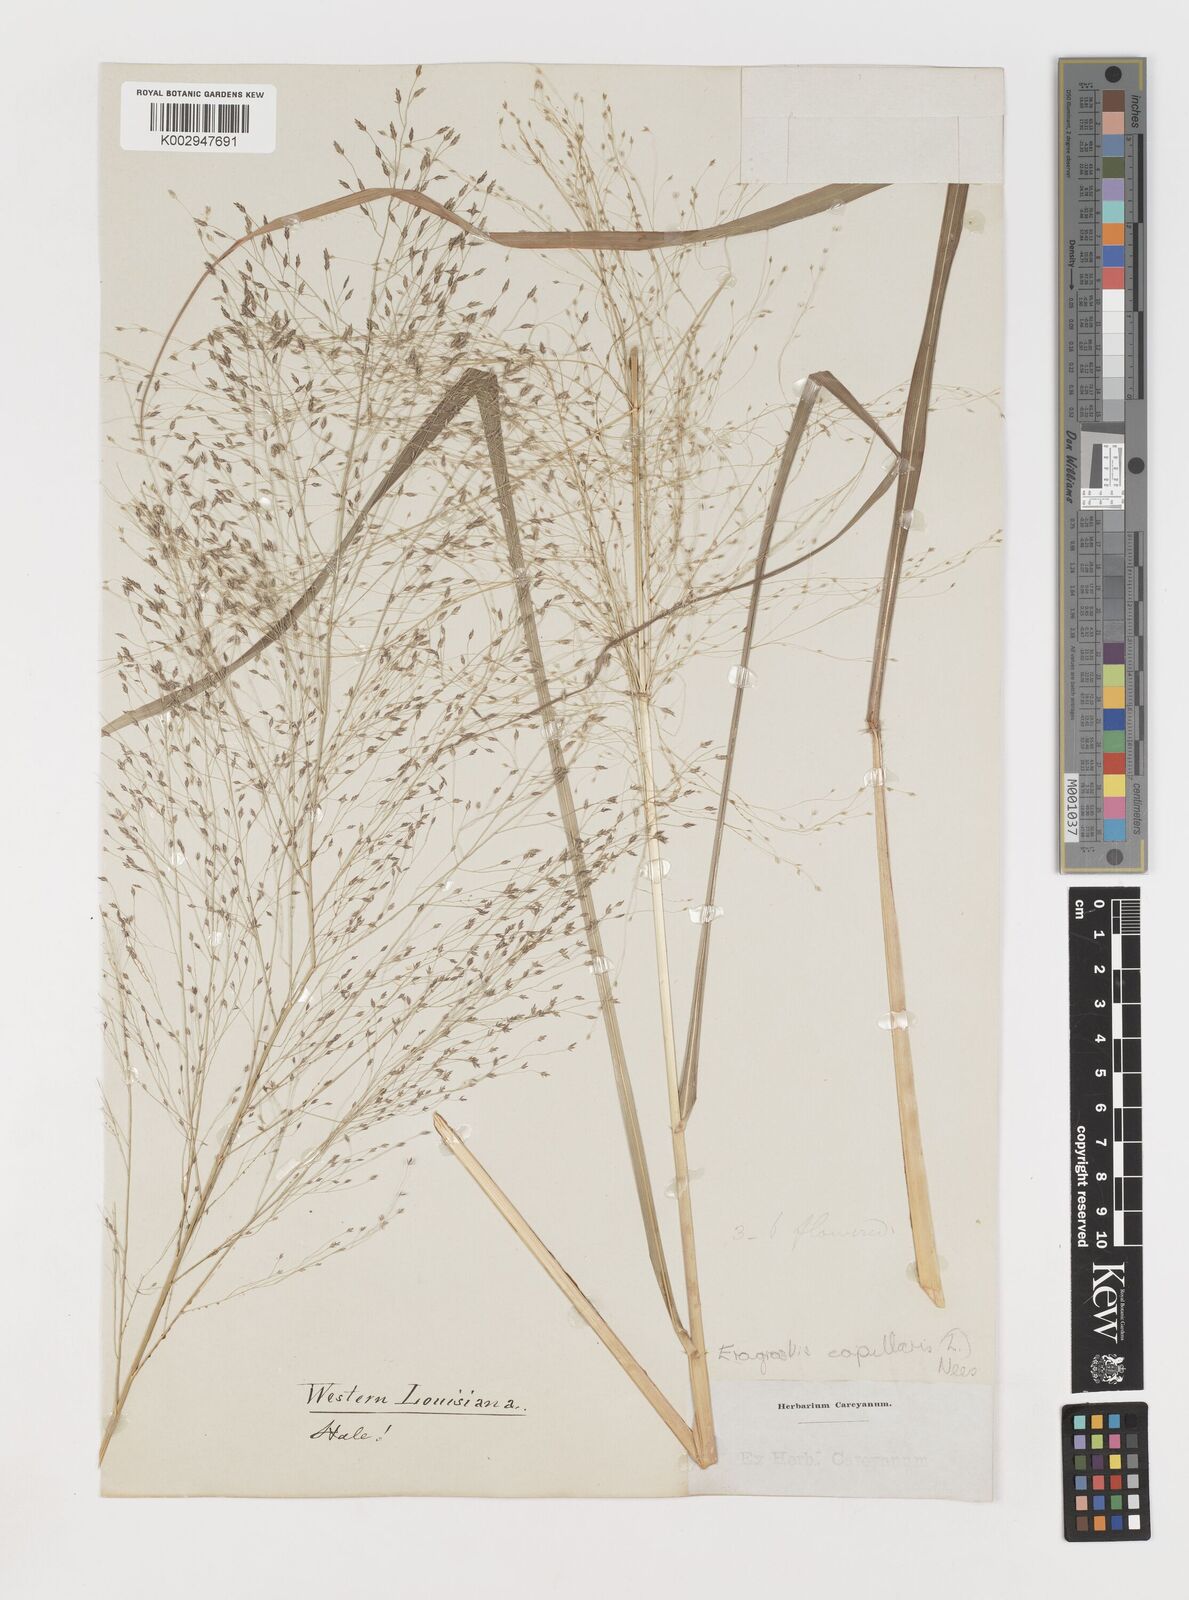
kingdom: Plantae
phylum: Tracheophyta
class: Liliopsida
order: Poales
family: Poaceae
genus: Eragrostis
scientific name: Eragrostis capillaris
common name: Hair-like lovegrass
